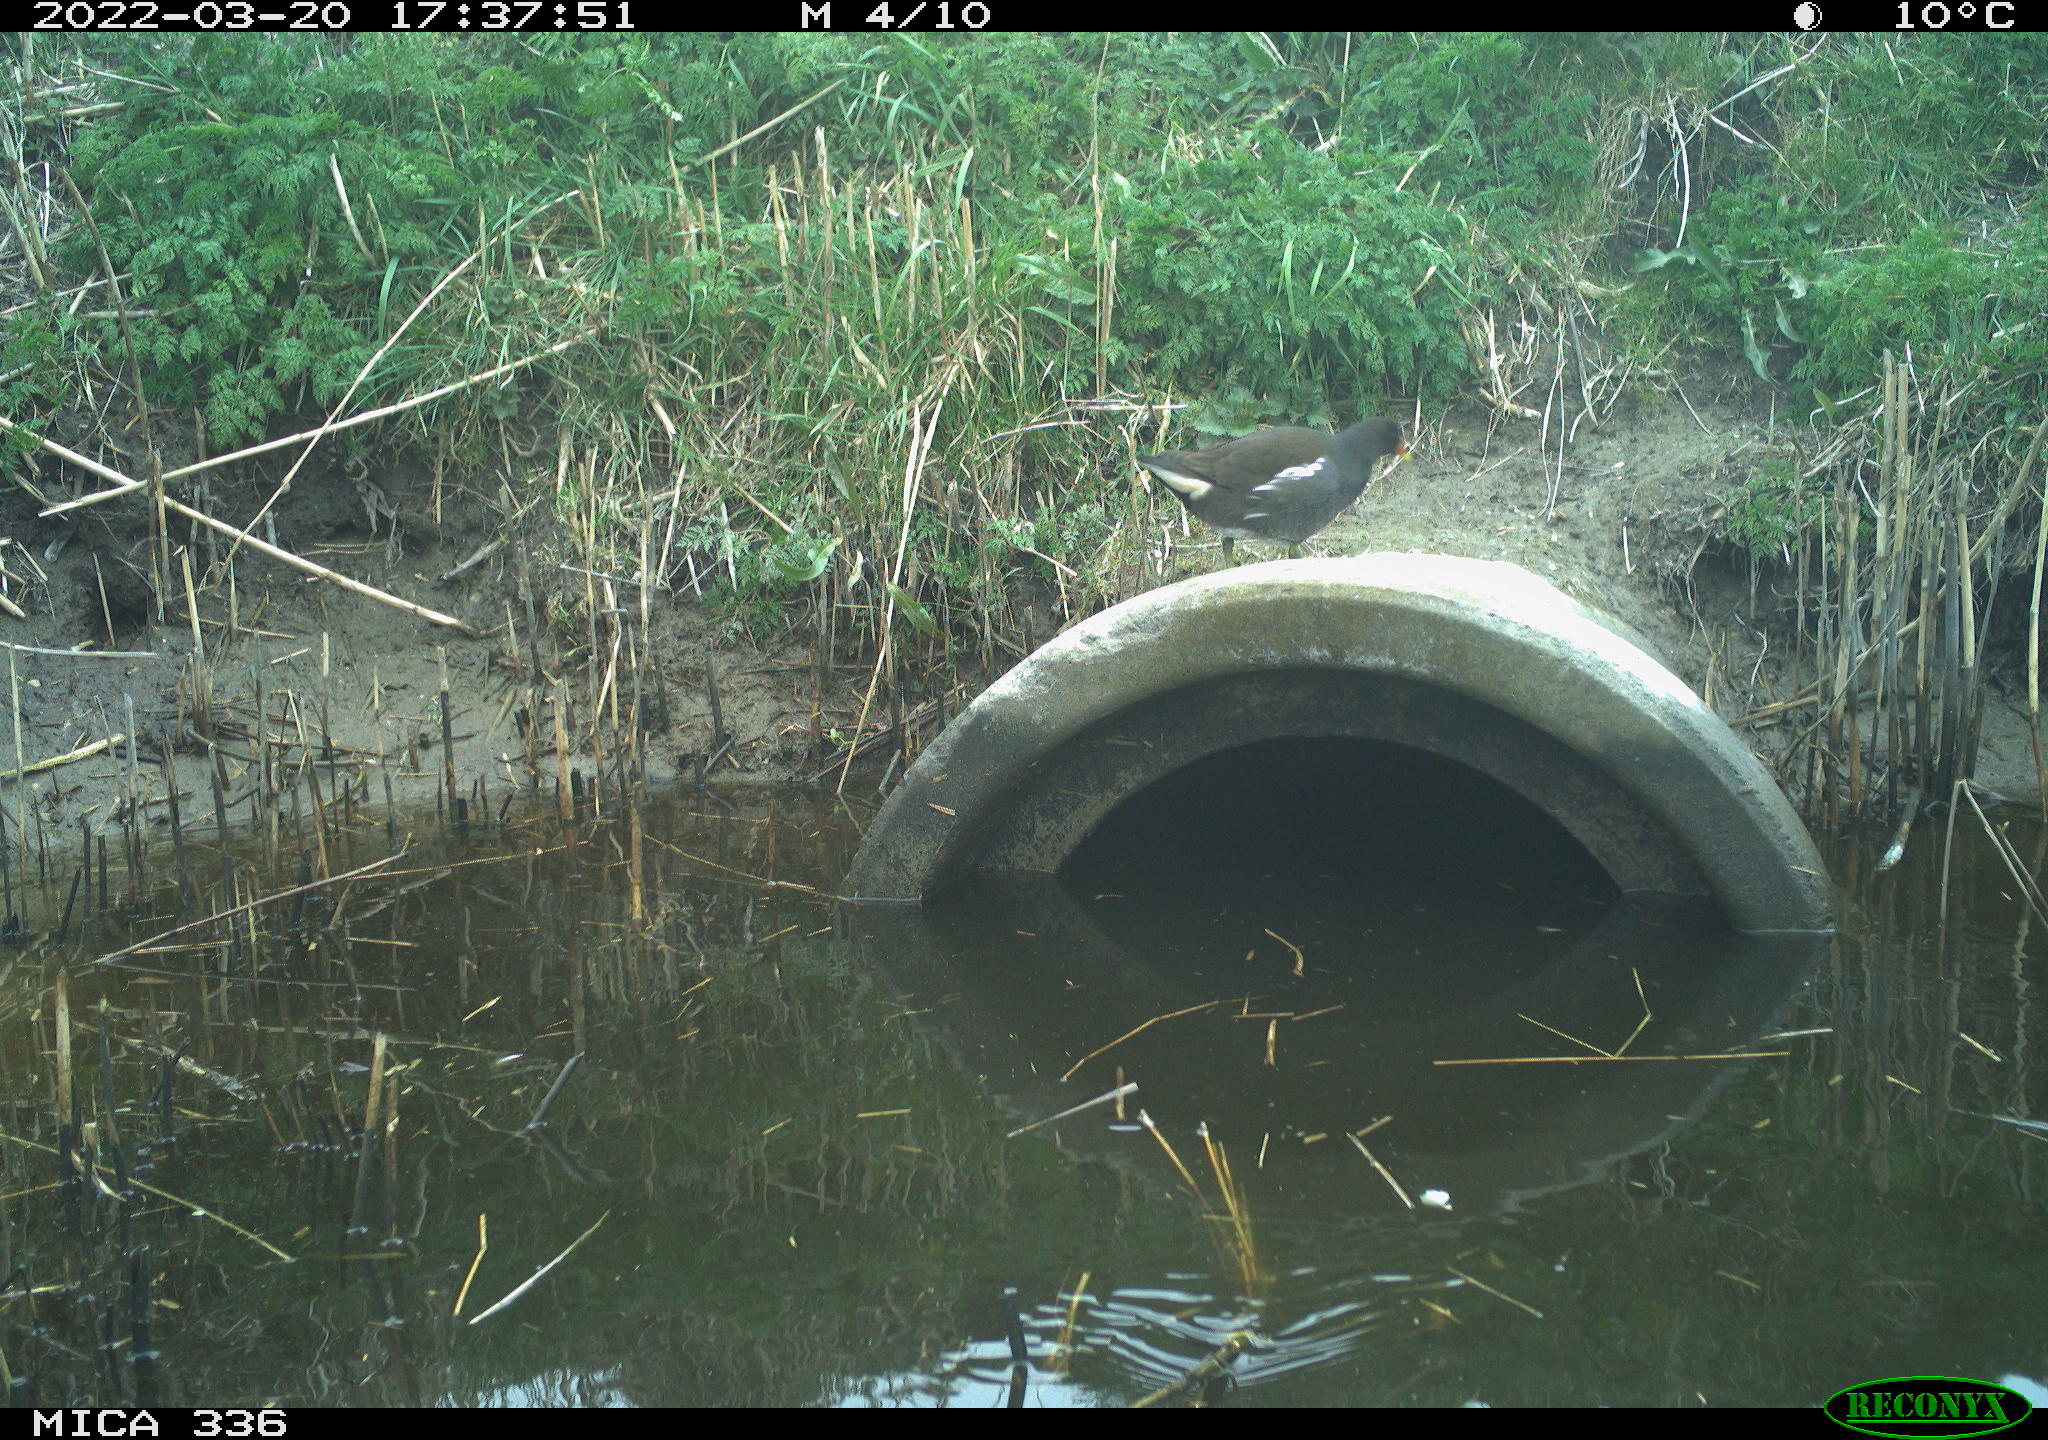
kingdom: Animalia
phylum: Chordata
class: Aves
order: Gruiformes
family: Rallidae
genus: Gallinula
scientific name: Gallinula chloropus
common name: Common moorhen
